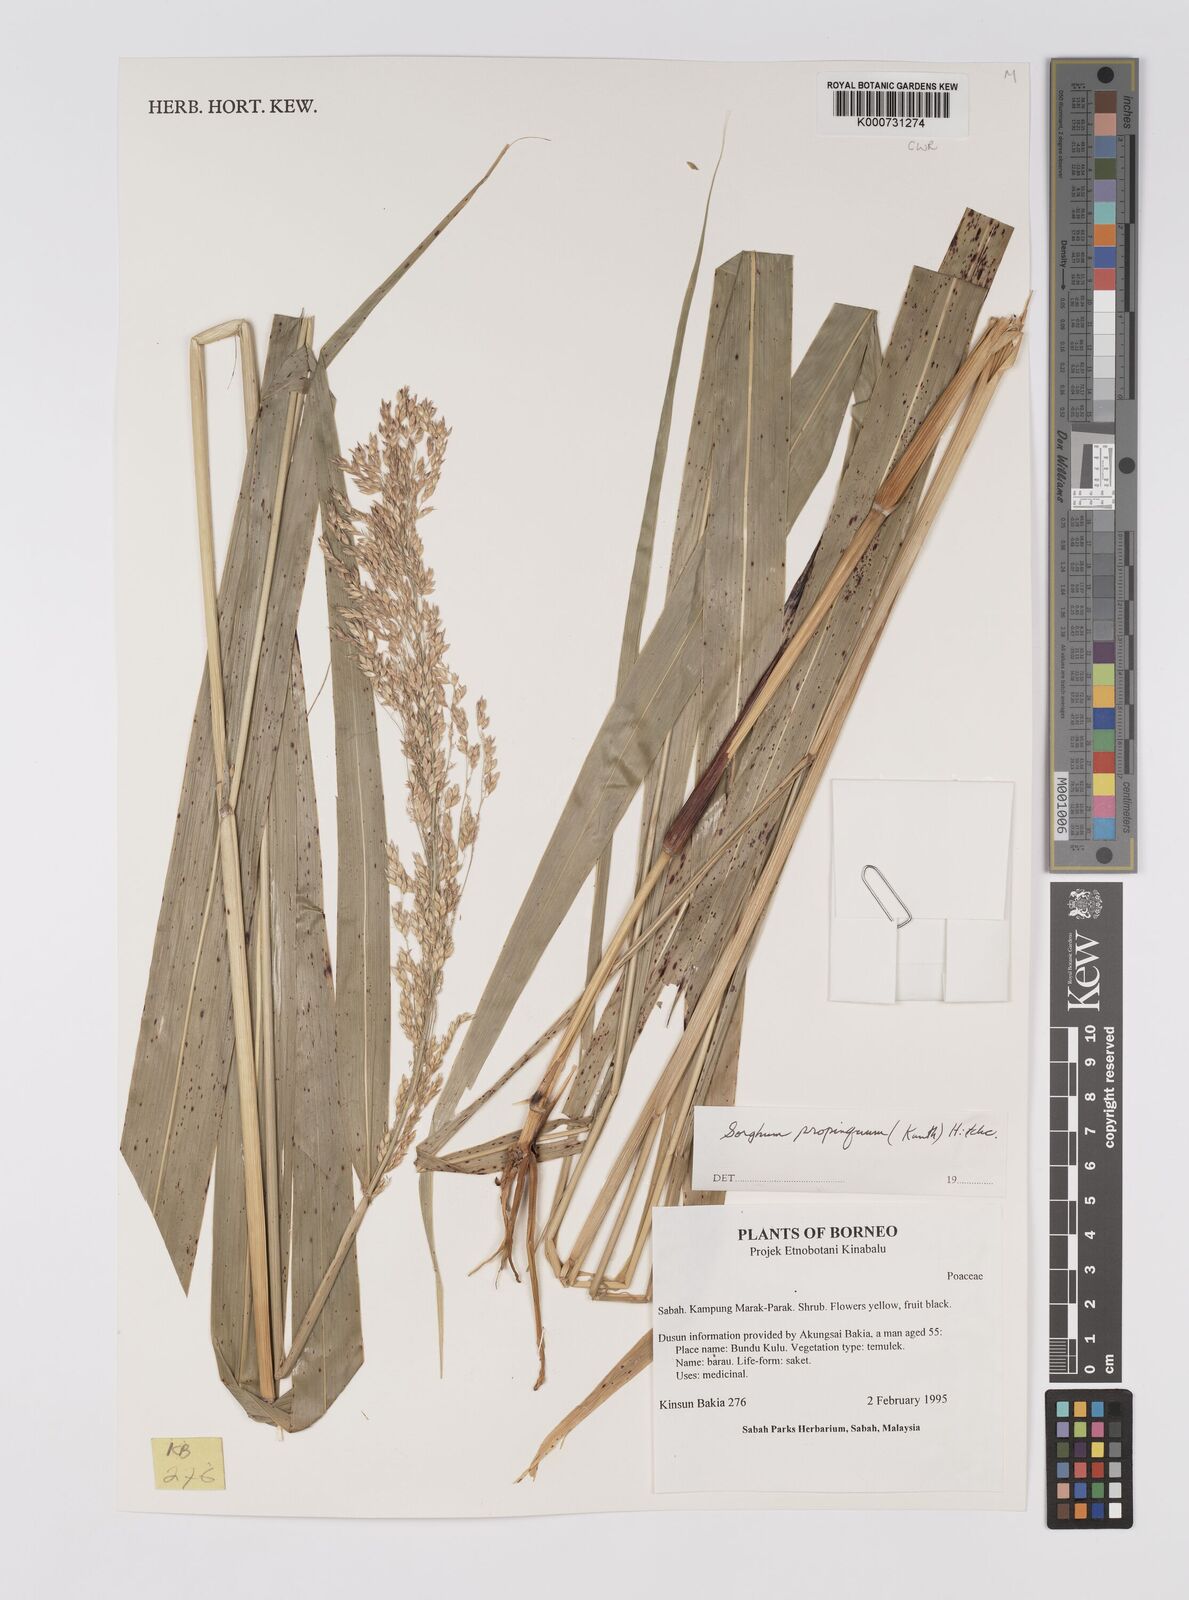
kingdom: Plantae
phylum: Tracheophyta
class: Liliopsida
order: Poales
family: Poaceae
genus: Sorghum
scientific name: Sorghum propinquum
